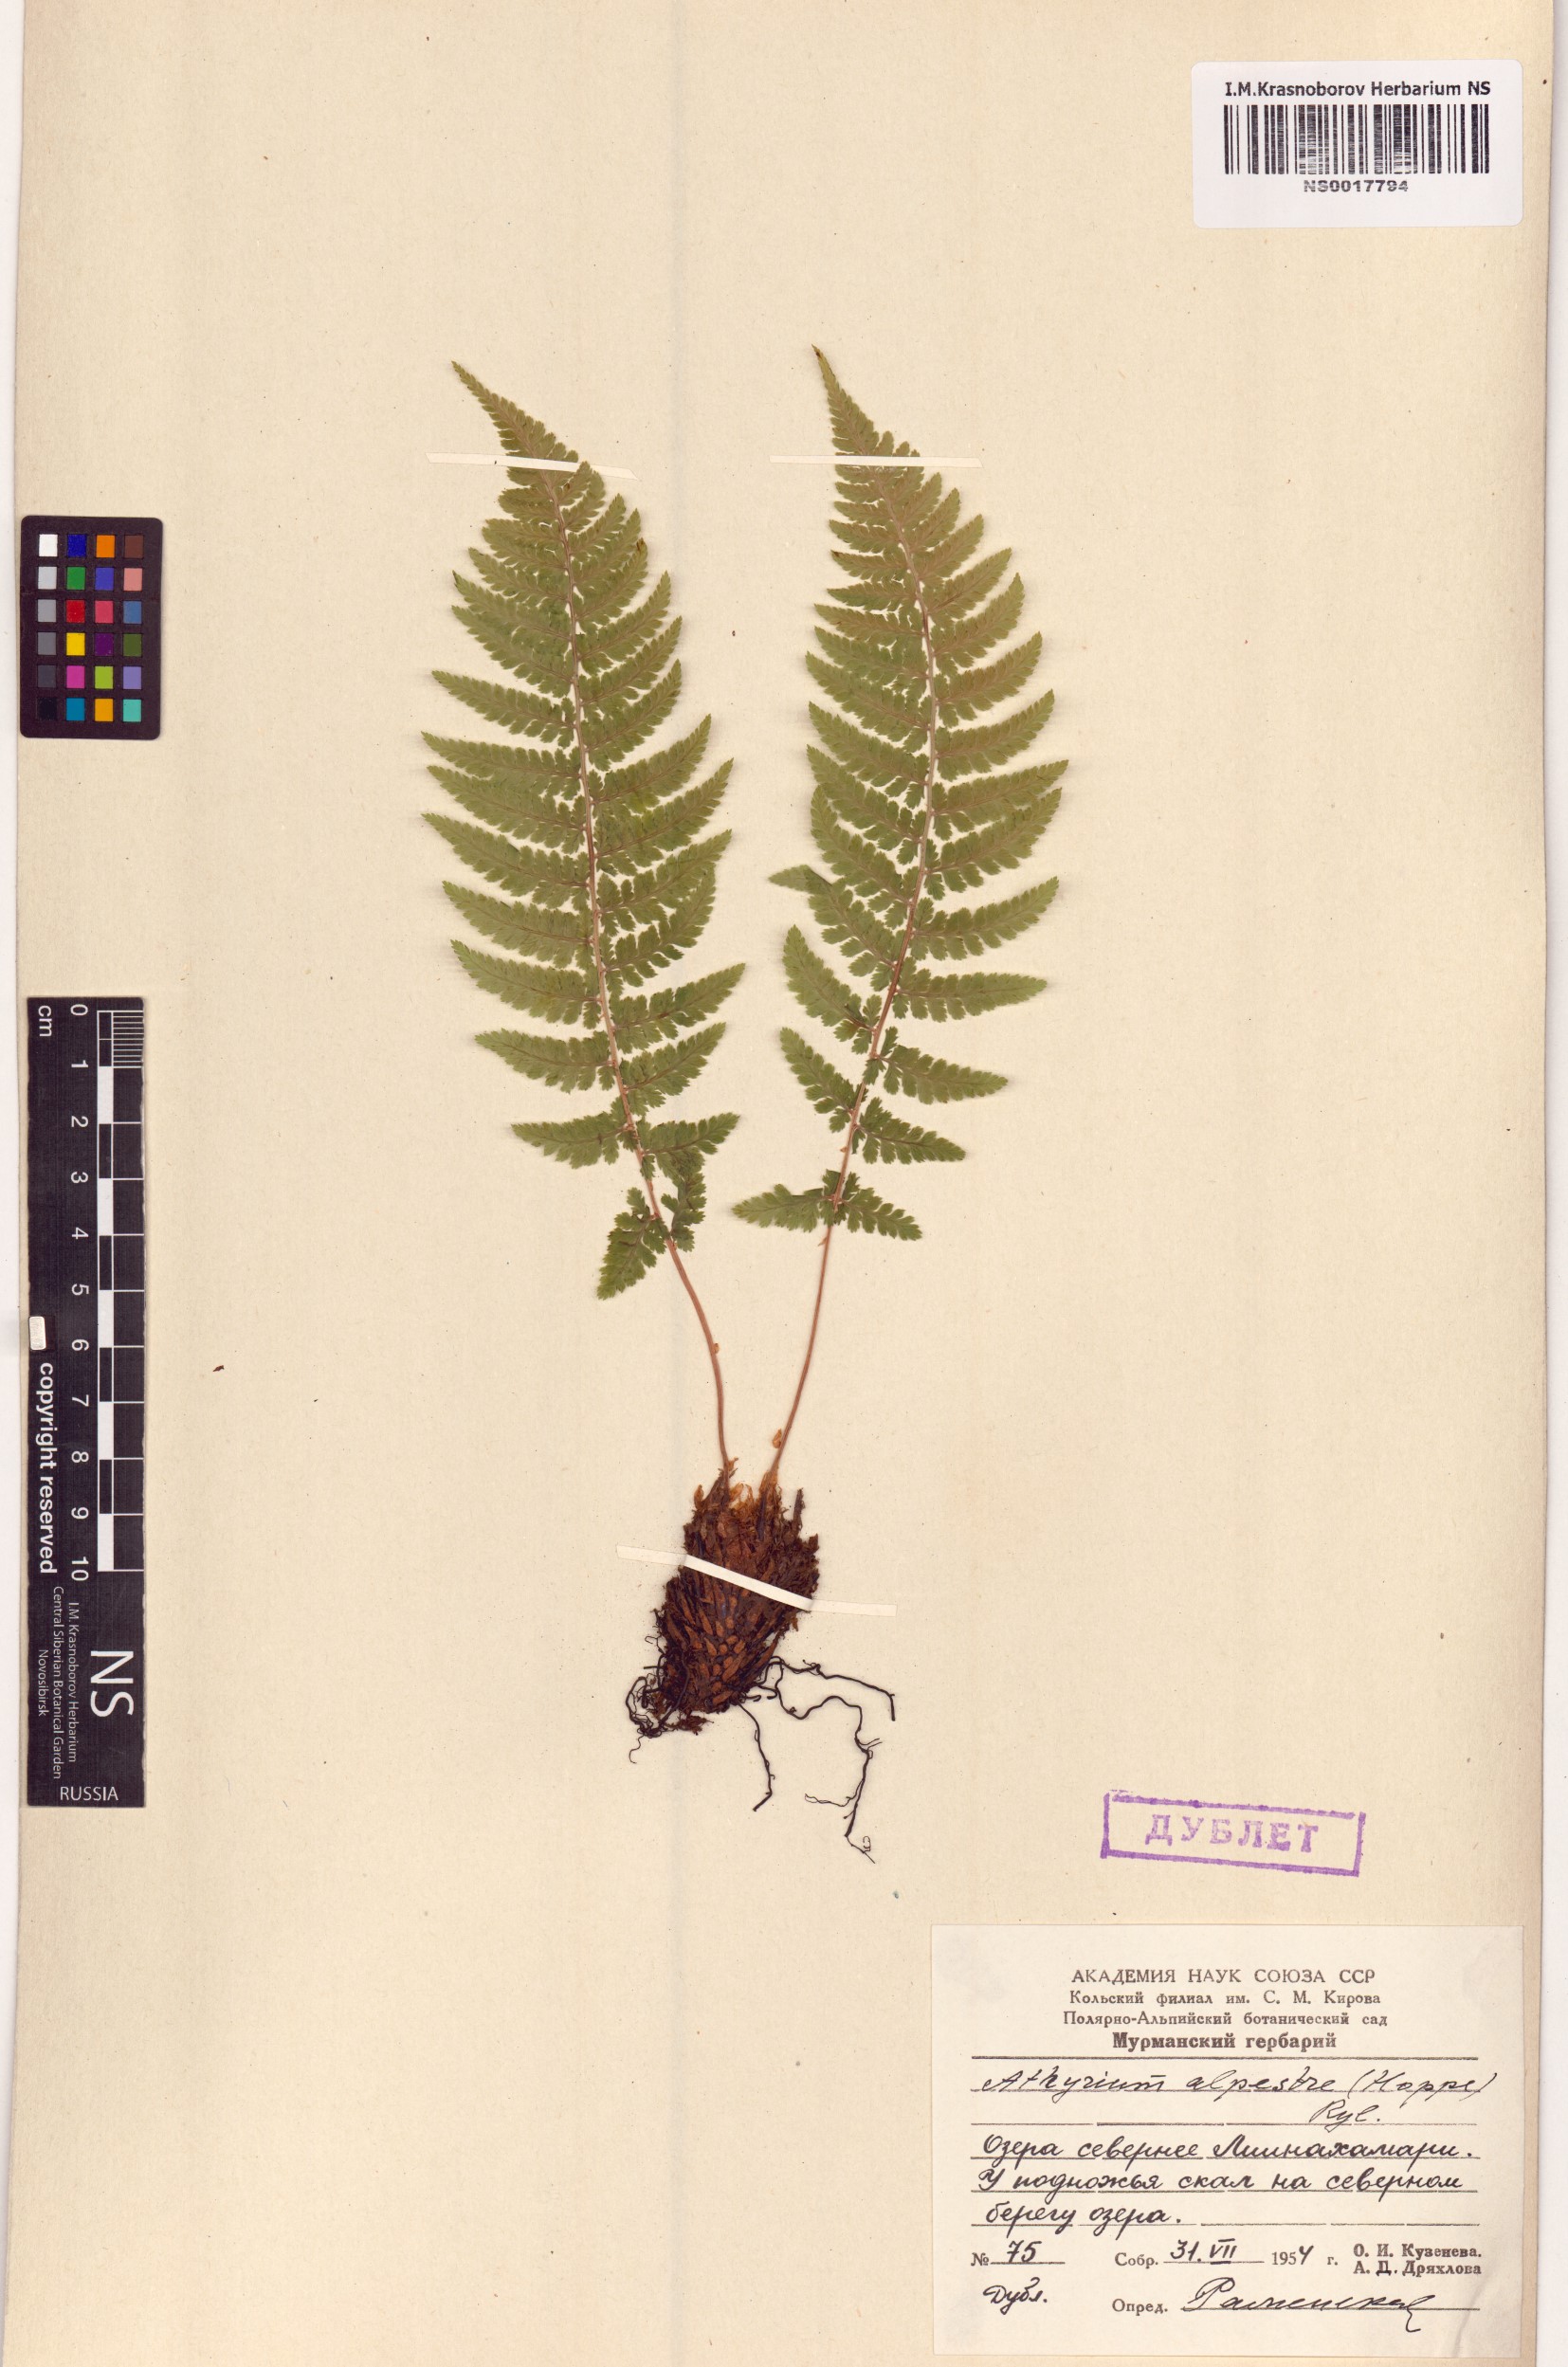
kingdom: Plantae
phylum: Tracheophyta
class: Polypodiopsida
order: Polypodiales
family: Athyriaceae
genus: Pseudathyrium
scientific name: Pseudathyrium alpestre
